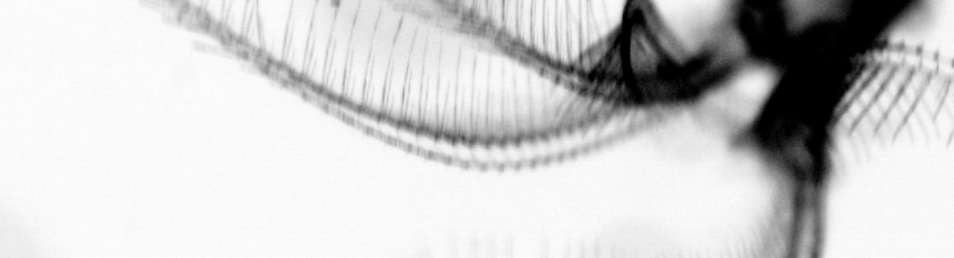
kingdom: Animalia
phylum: Chordata
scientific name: Chordata
